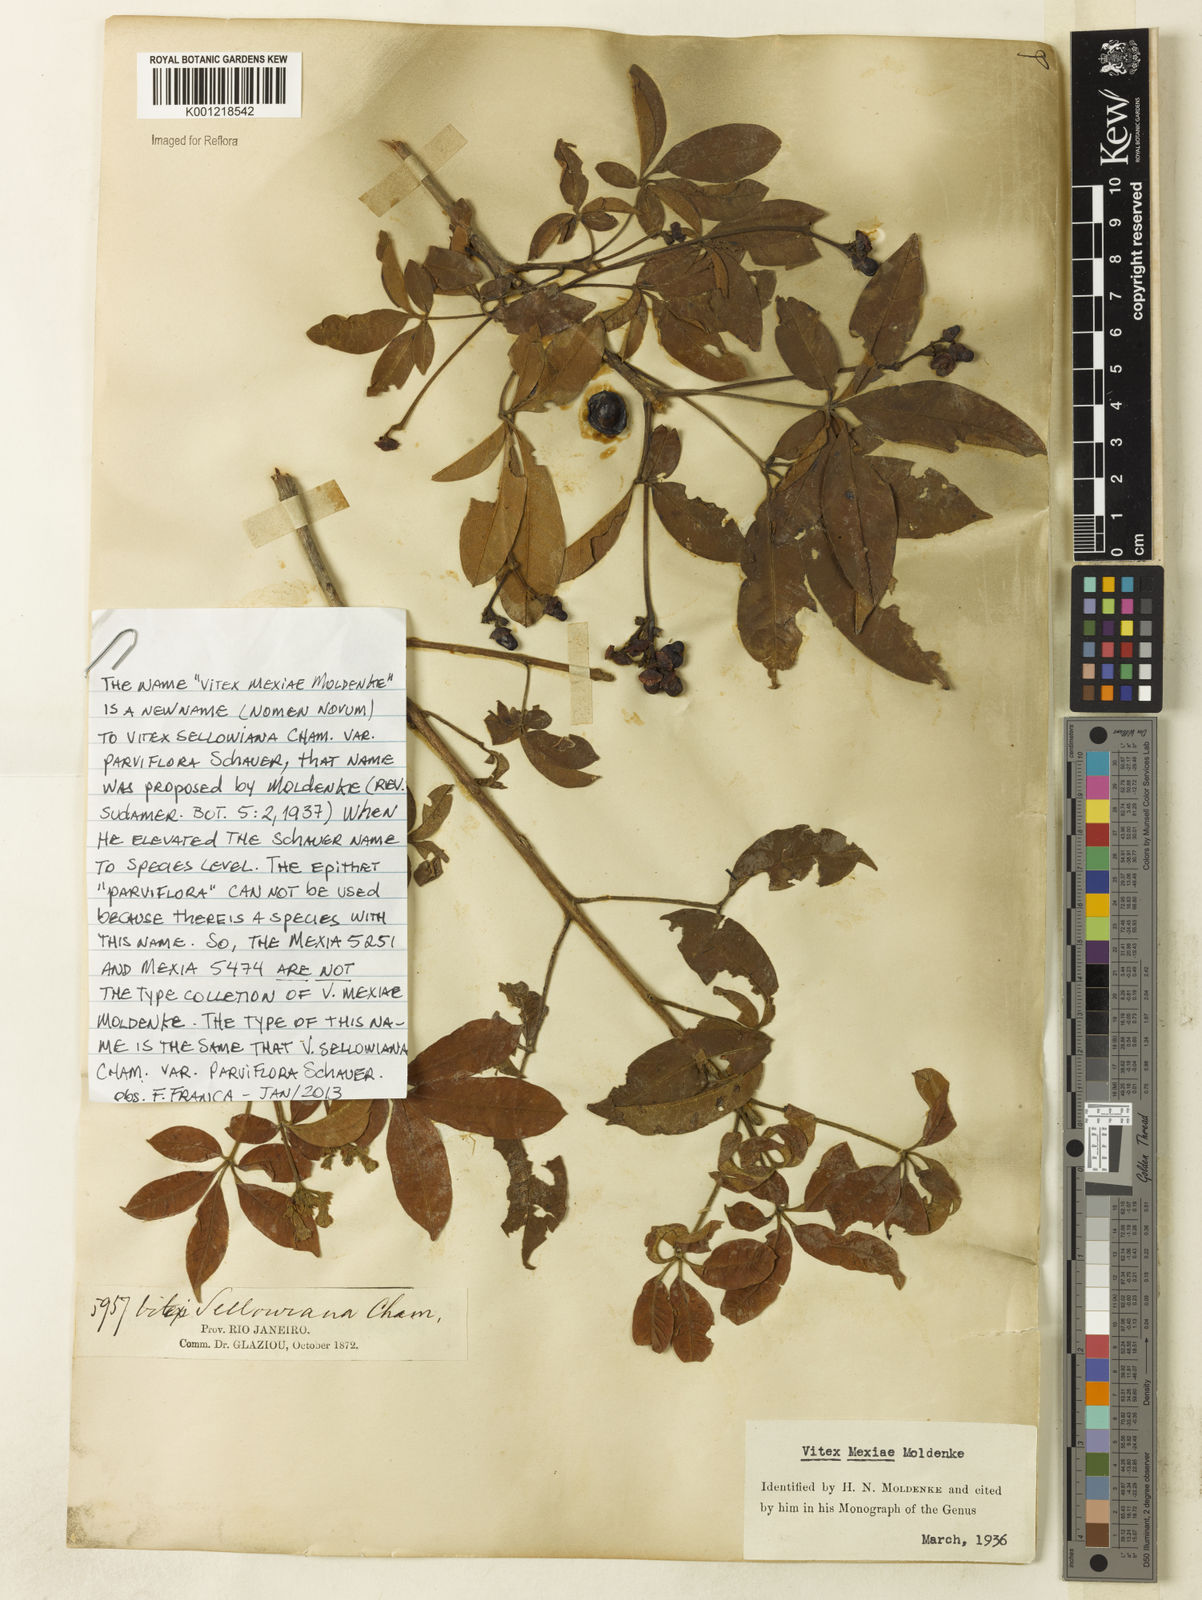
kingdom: Plantae
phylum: Tracheophyta
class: Magnoliopsida
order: Lamiales
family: Lamiaceae
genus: Vitex
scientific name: Vitex sellowiana
